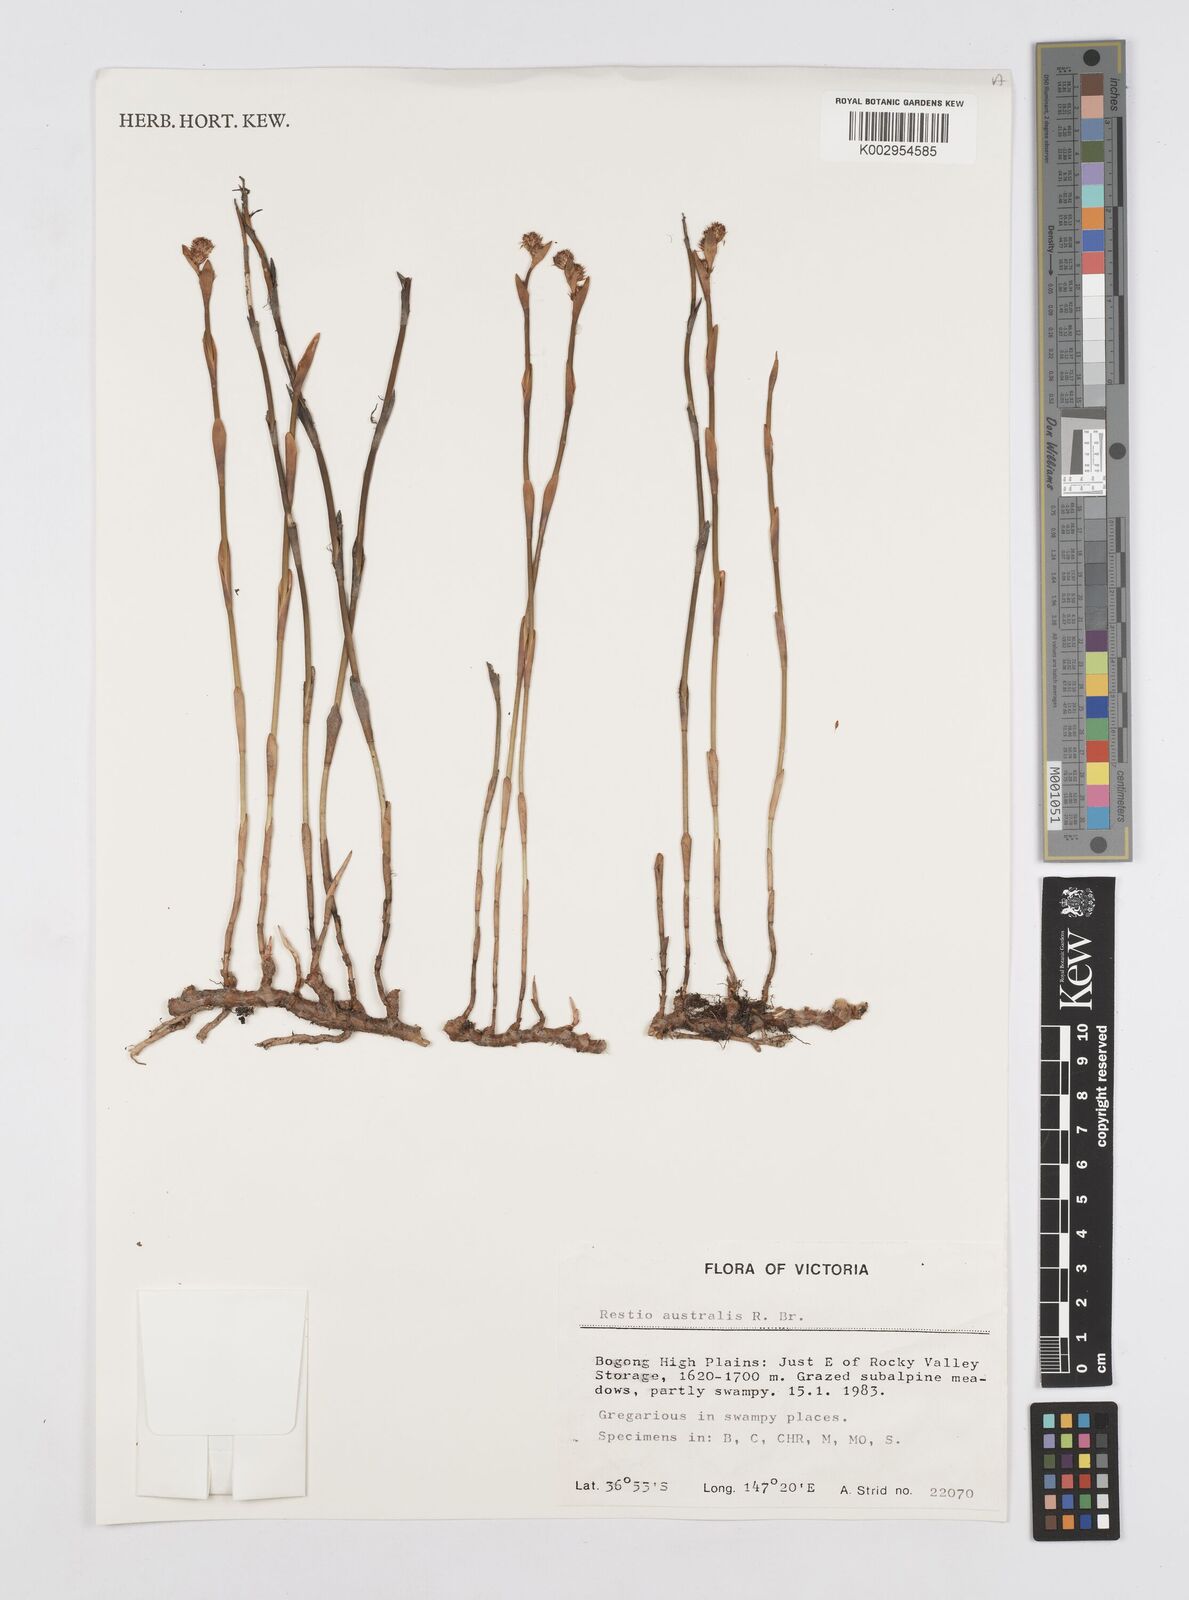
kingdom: Plantae
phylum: Tracheophyta
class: Liliopsida
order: Poales
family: Restionaceae
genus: Baloskion
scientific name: Baloskion australe
